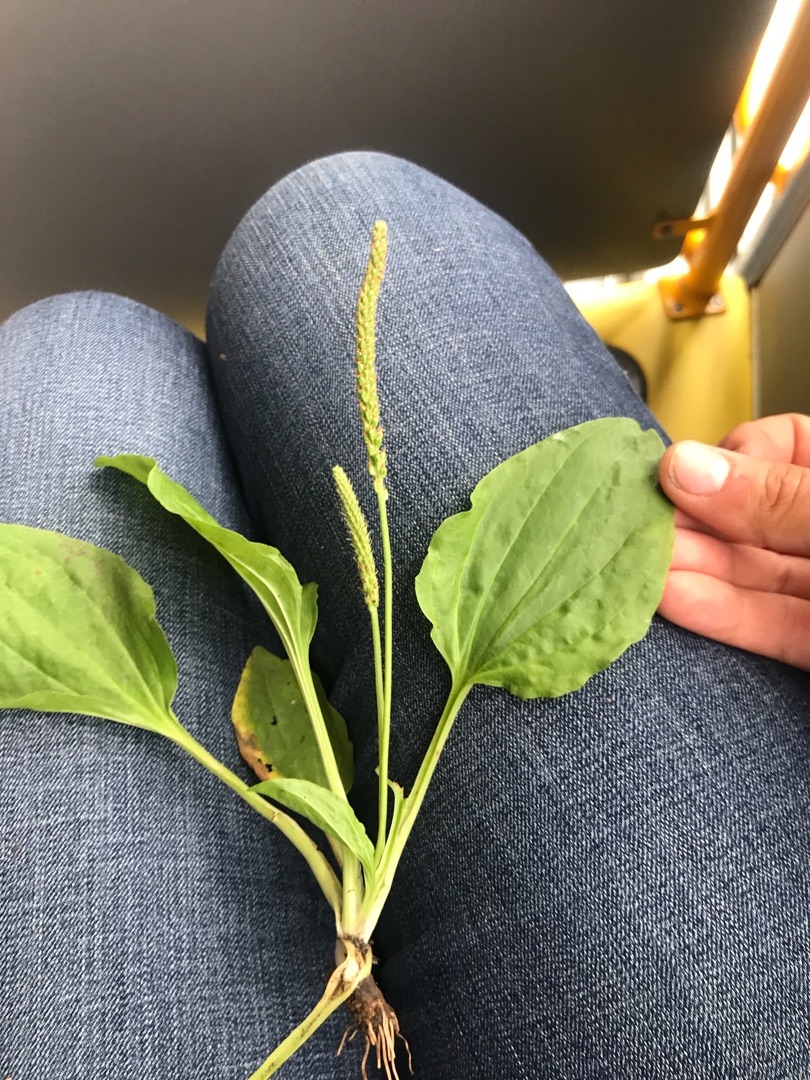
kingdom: Plantae
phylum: Tracheophyta
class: Magnoliopsida
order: Lamiales
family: Plantaginaceae
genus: Plantago
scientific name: Plantago major
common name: Glat vejbred
